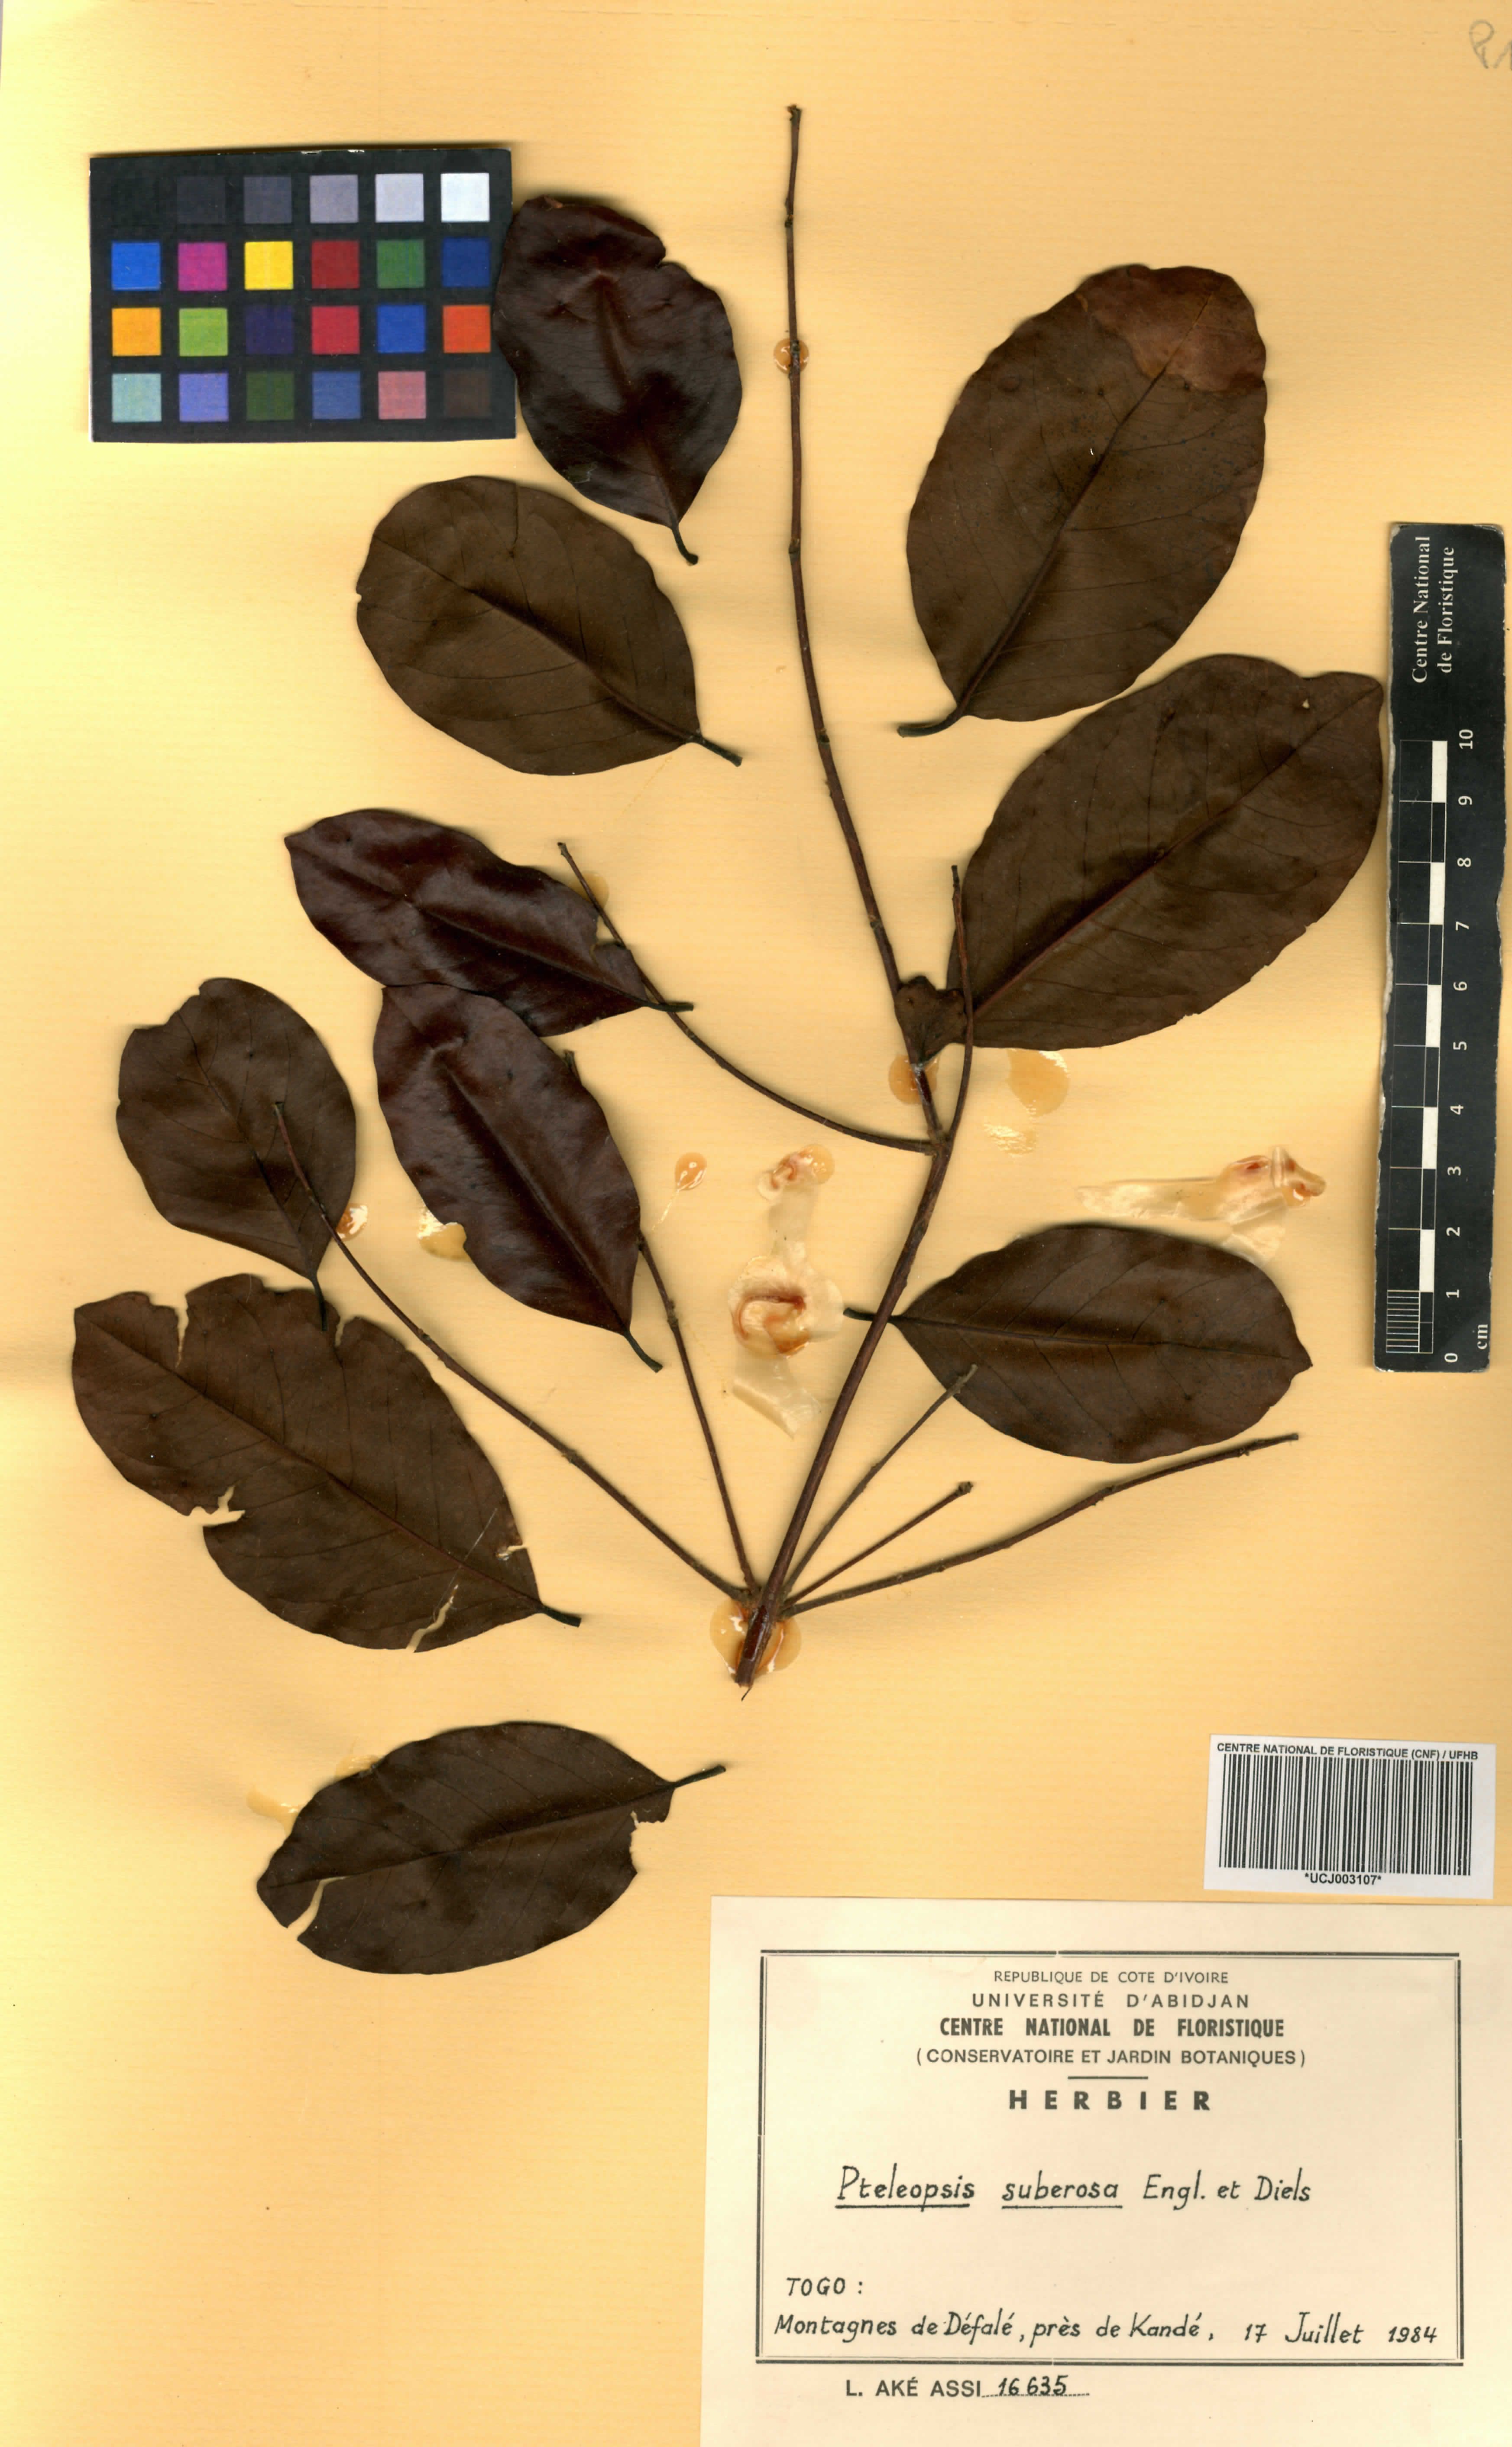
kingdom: Plantae
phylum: Tracheophyta
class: Magnoliopsida
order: Myrtales
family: Combretaceae
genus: Terminalia
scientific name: Terminalia engleri
